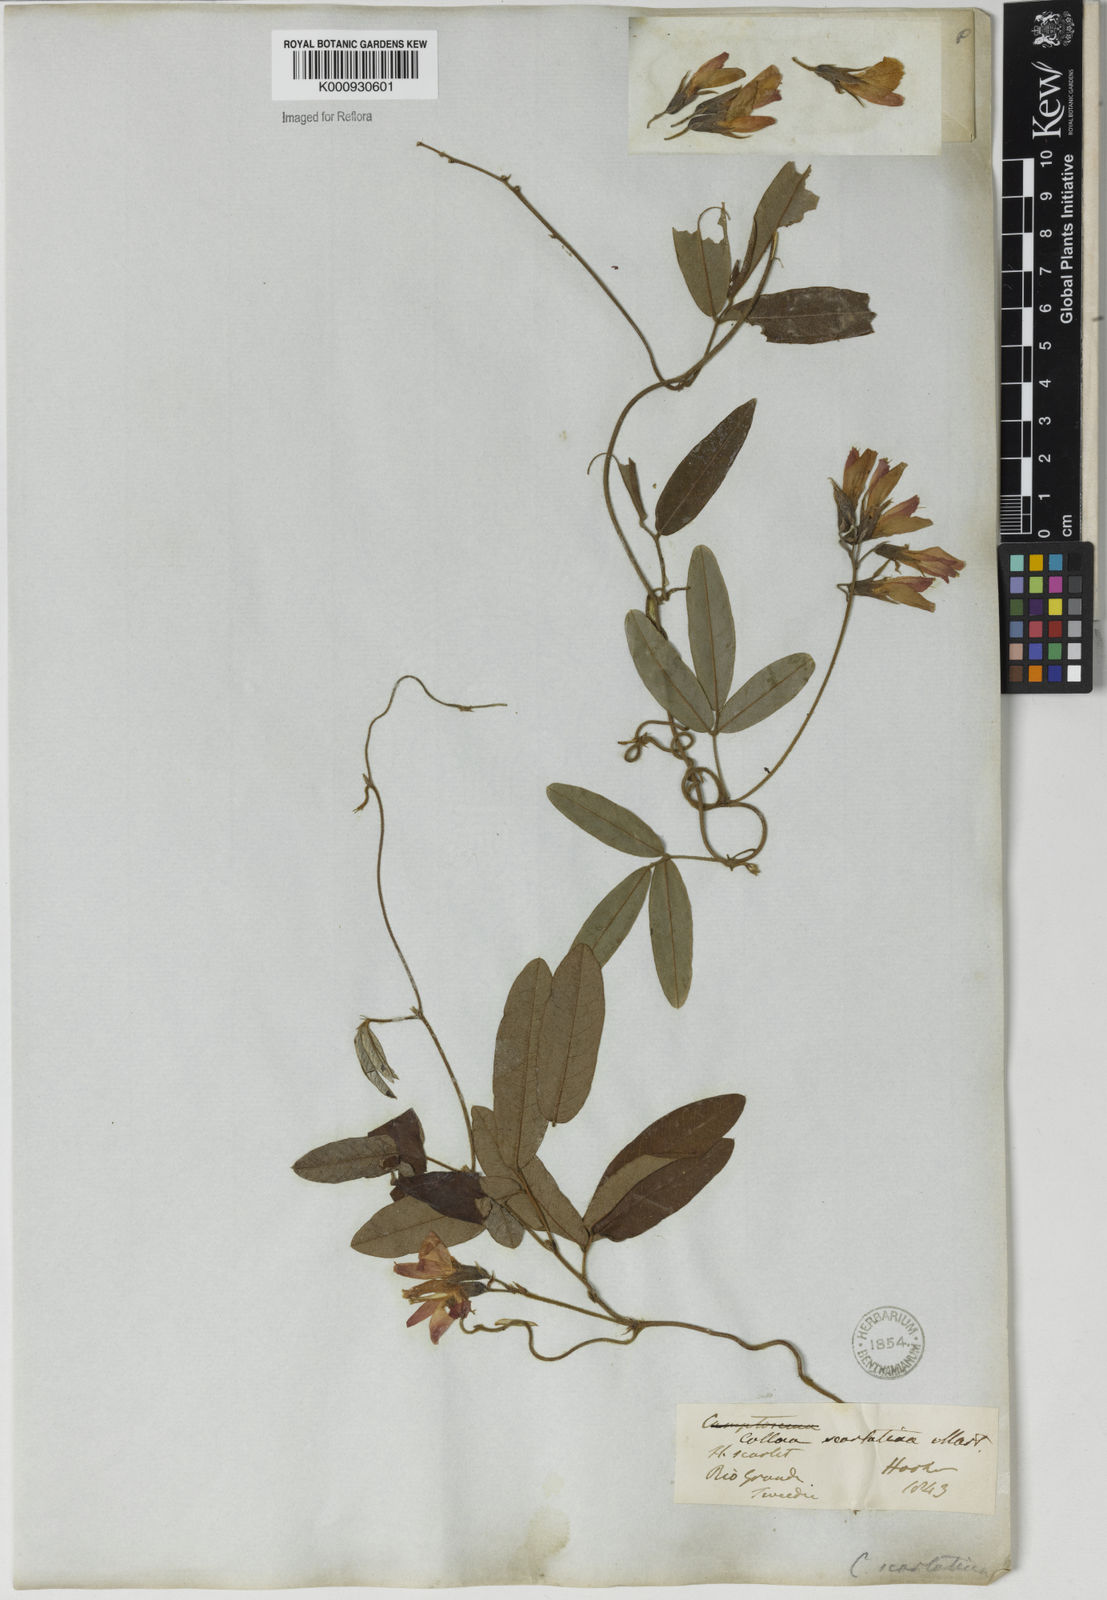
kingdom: Plantae
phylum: Tracheophyta
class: Magnoliopsida
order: Fabales
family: Fabaceae
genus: Betencourtia
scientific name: Betencourtia scarlatina
